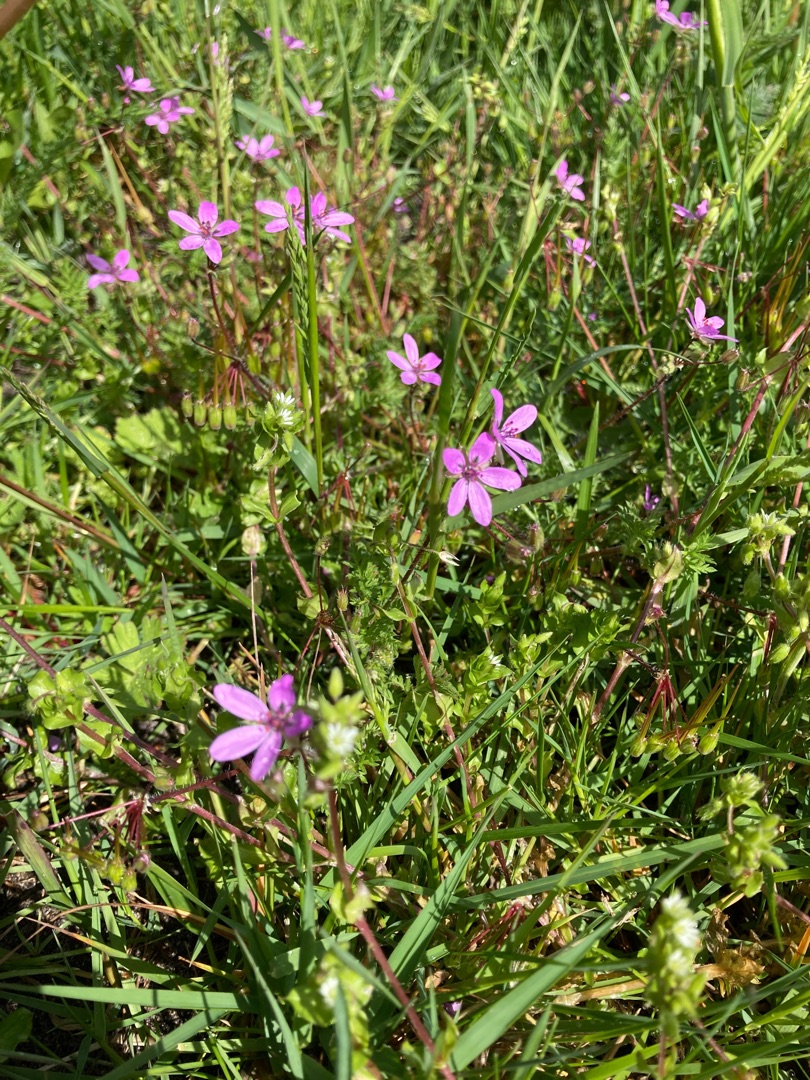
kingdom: Plantae
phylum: Tracheophyta
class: Magnoliopsida
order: Geraniales
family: Geraniaceae
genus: Erodium
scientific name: Erodium cicutarium
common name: Hejrenæb
